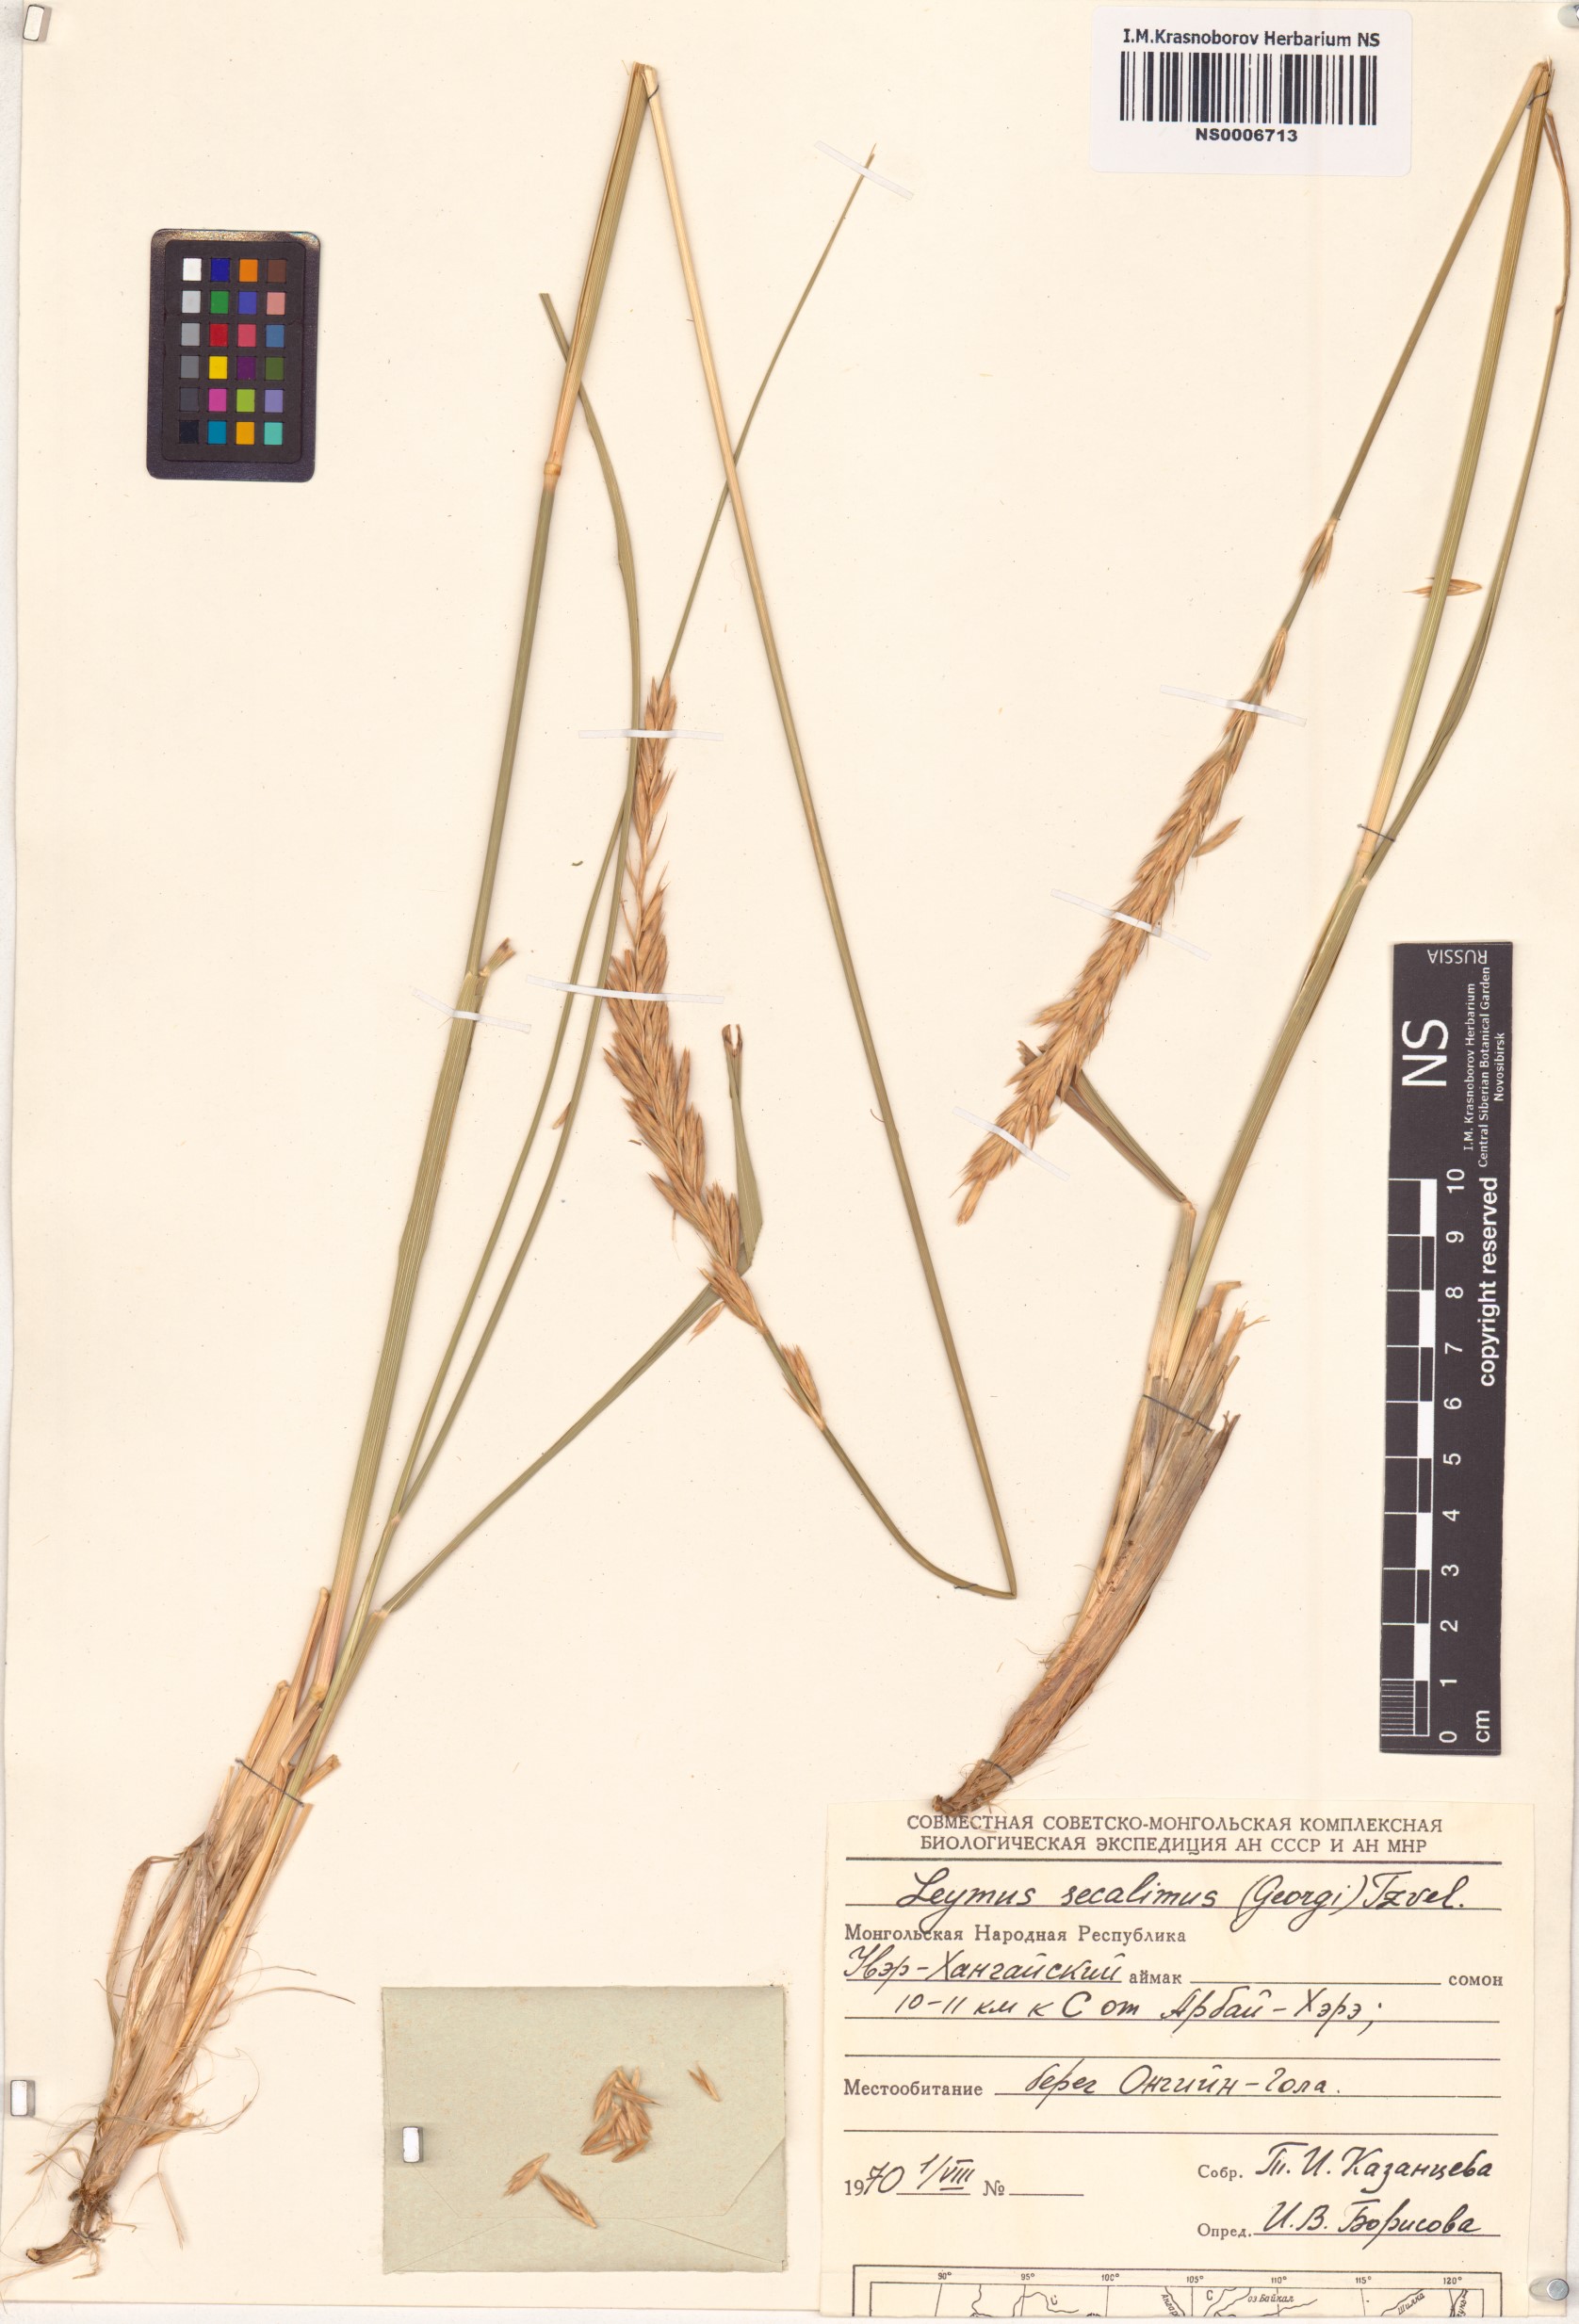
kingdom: Plantae
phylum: Tracheophyta
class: Liliopsida
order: Poales
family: Poaceae
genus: Leymus
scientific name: Leymus secalinus
